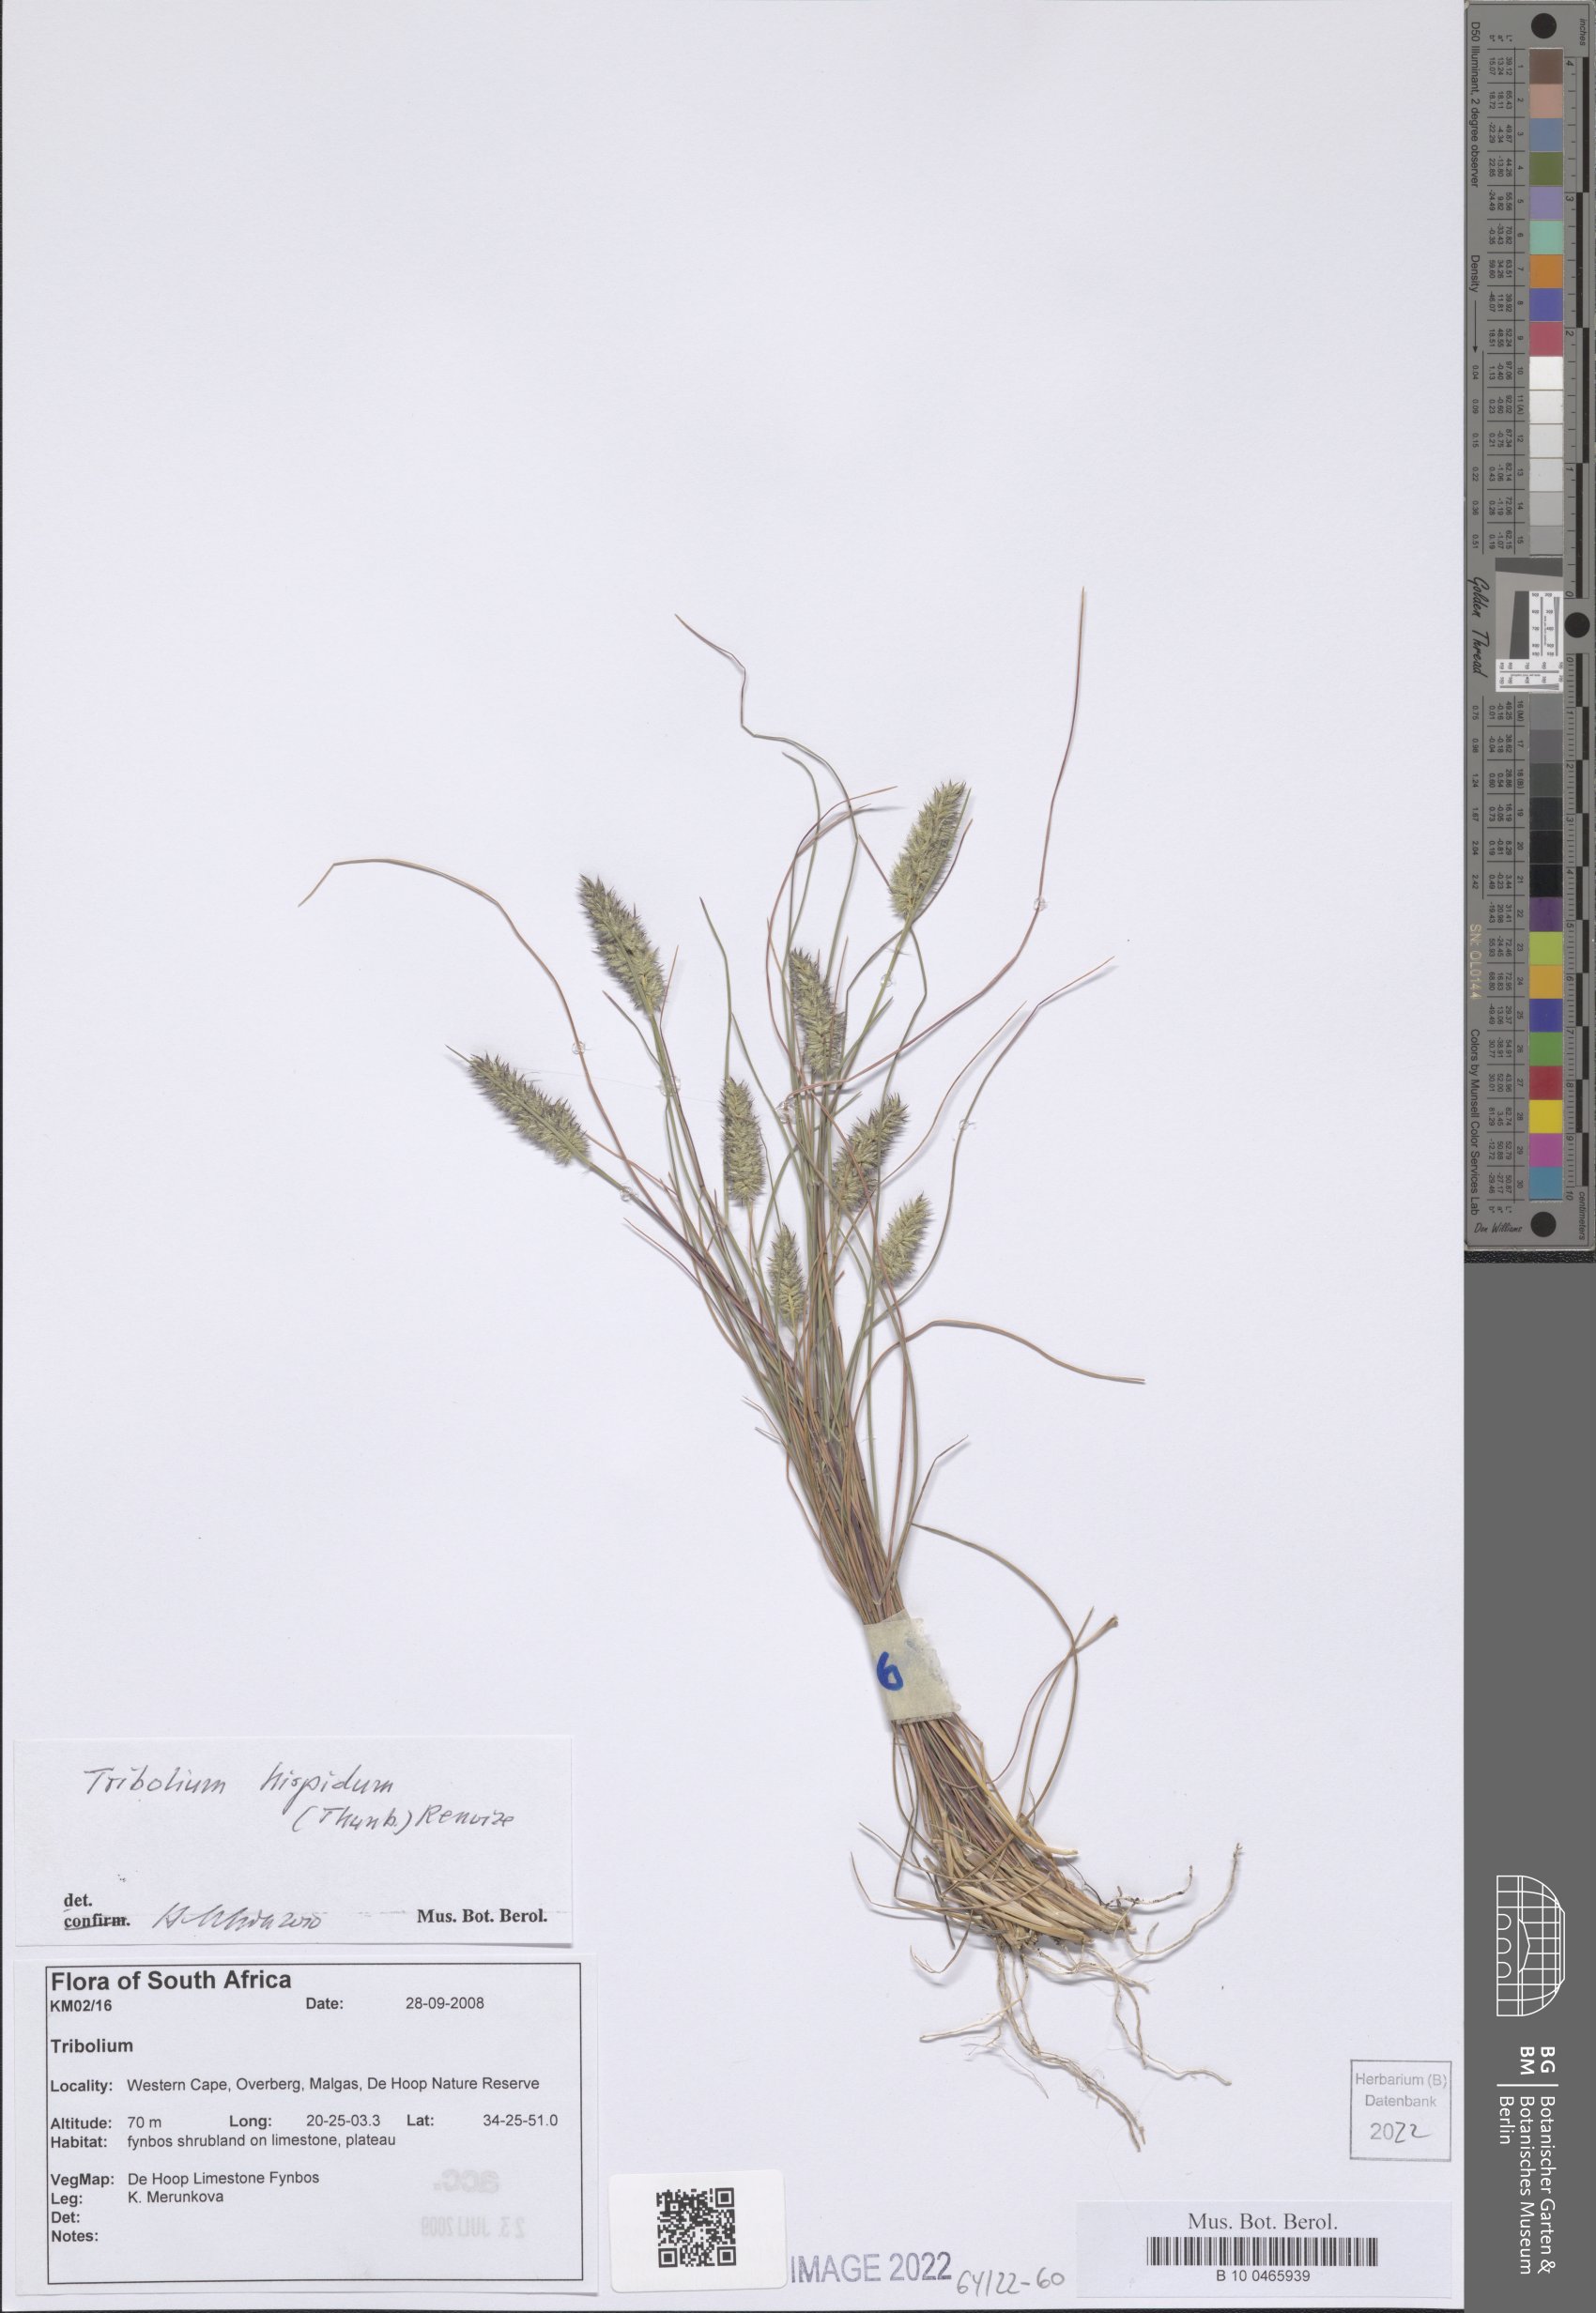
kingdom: Plantae
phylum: Tracheophyta
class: Liliopsida
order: Poales
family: Poaceae
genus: Tribolium
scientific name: Tribolium hispidum
